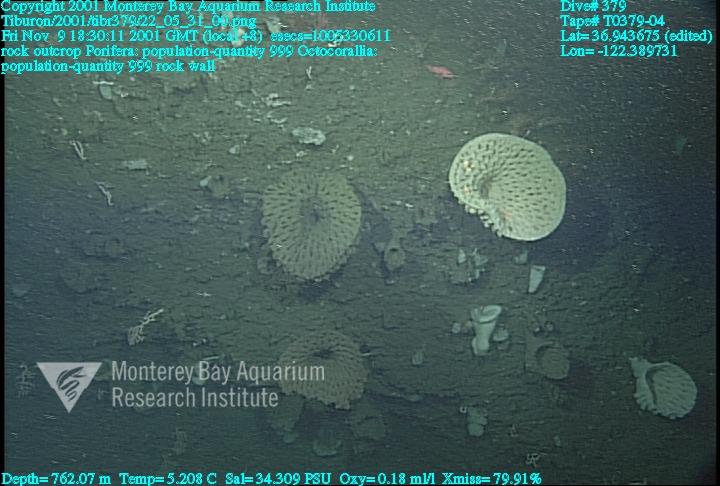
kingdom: Animalia
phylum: Porifera
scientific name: Porifera
